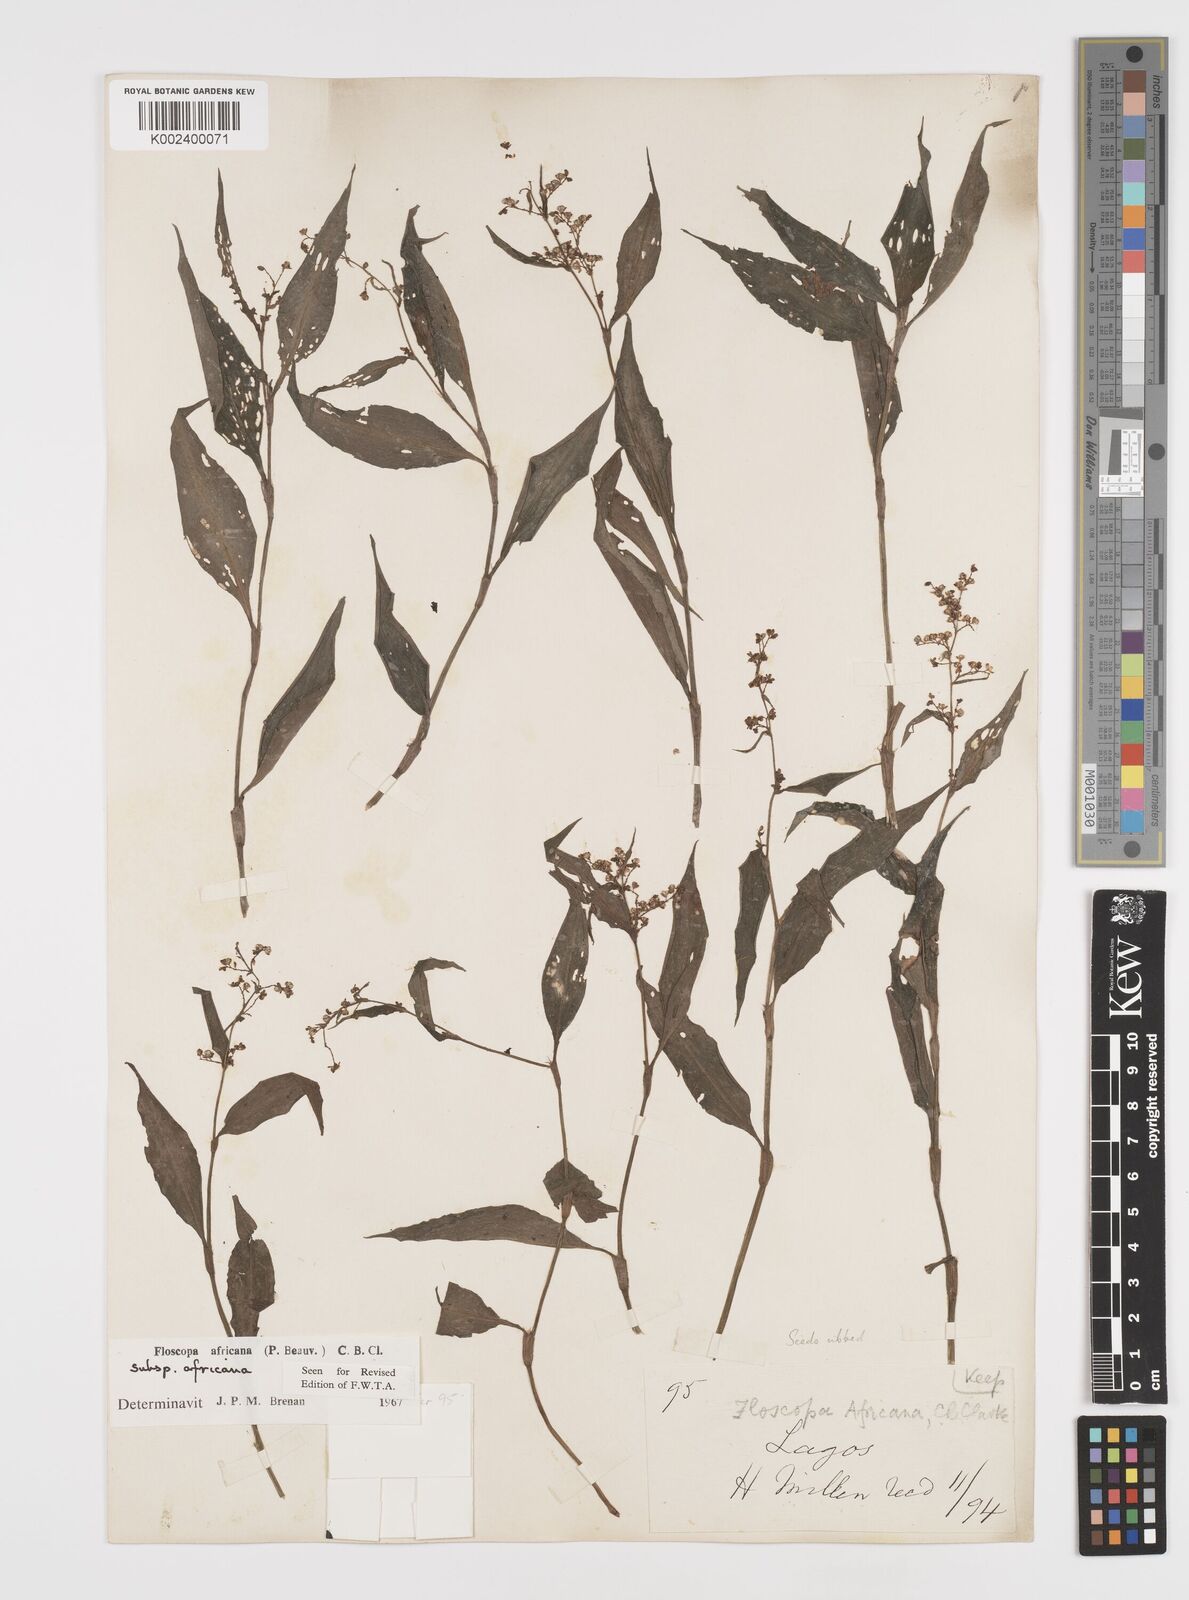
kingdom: Plantae
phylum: Tracheophyta
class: Liliopsida
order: Commelinales
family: Commelinaceae
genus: Floscopa
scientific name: Floscopa africana
